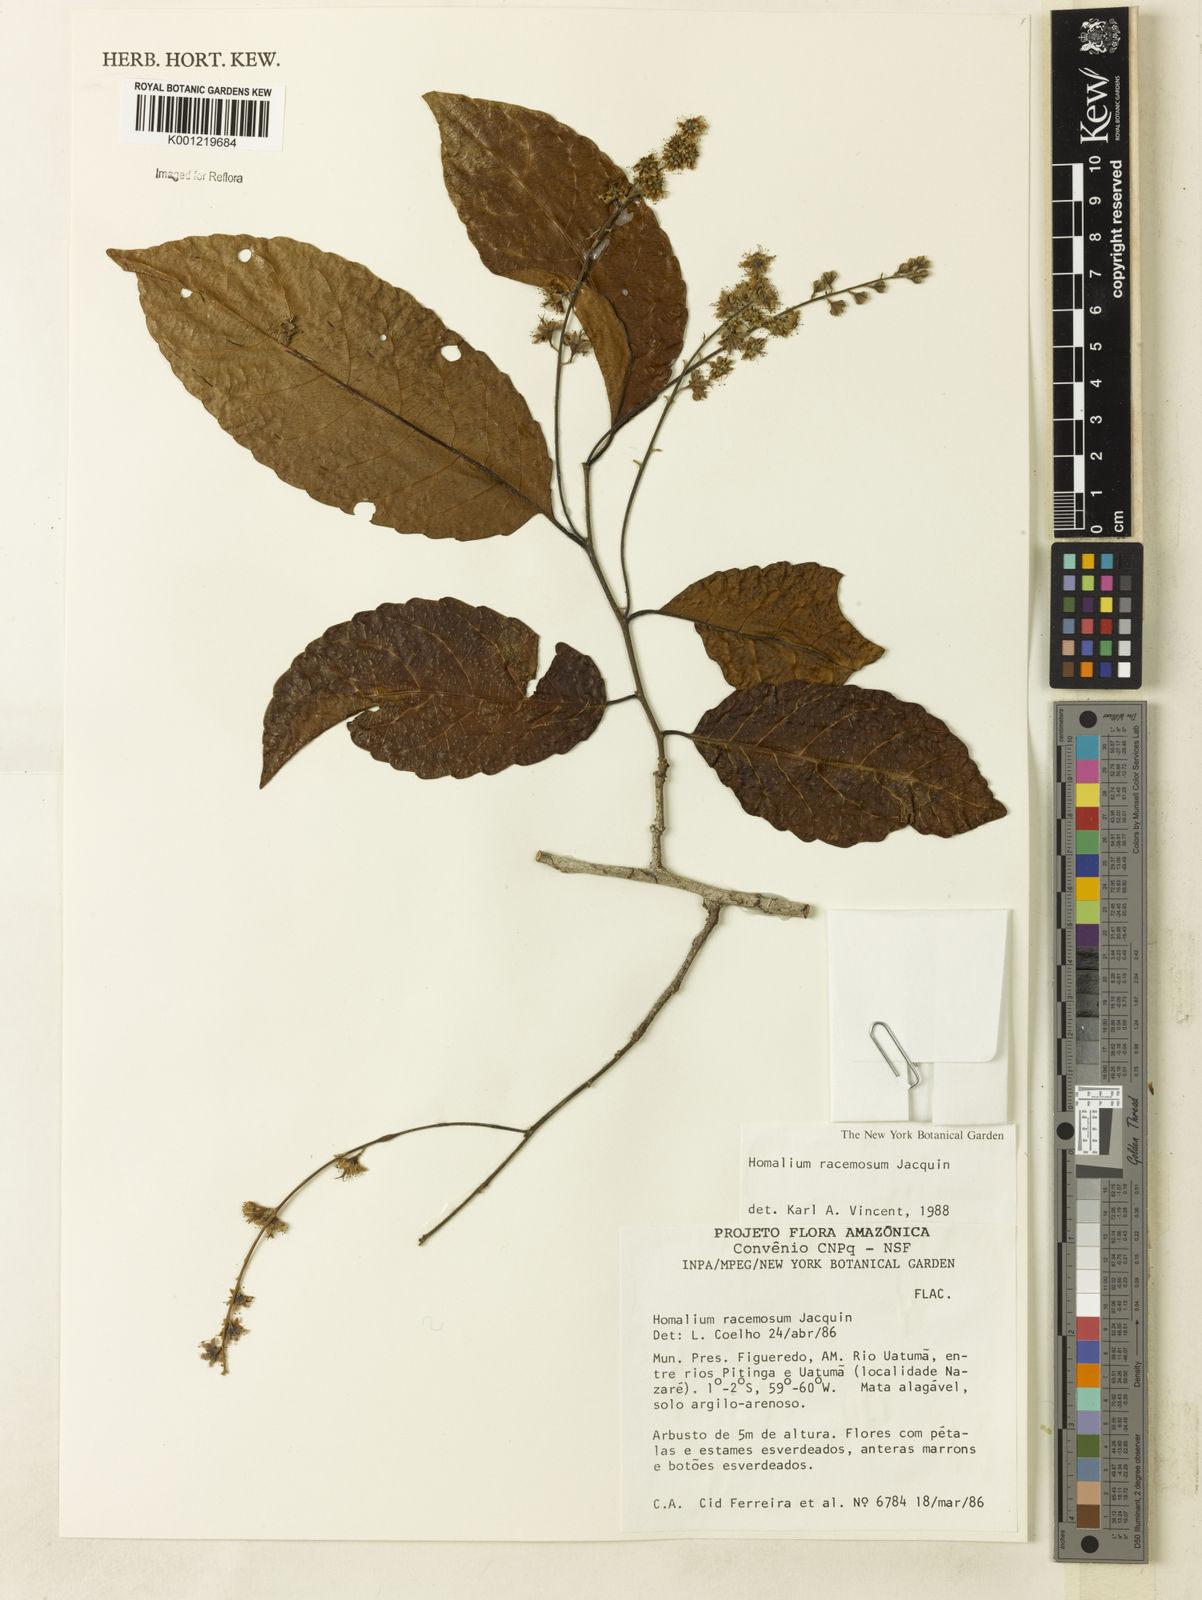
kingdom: Plantae
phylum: Tracheophyta
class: Magnoliopsida
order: Malpighiales
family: Salicaceae
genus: Homalium
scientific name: Homalium racemosum
